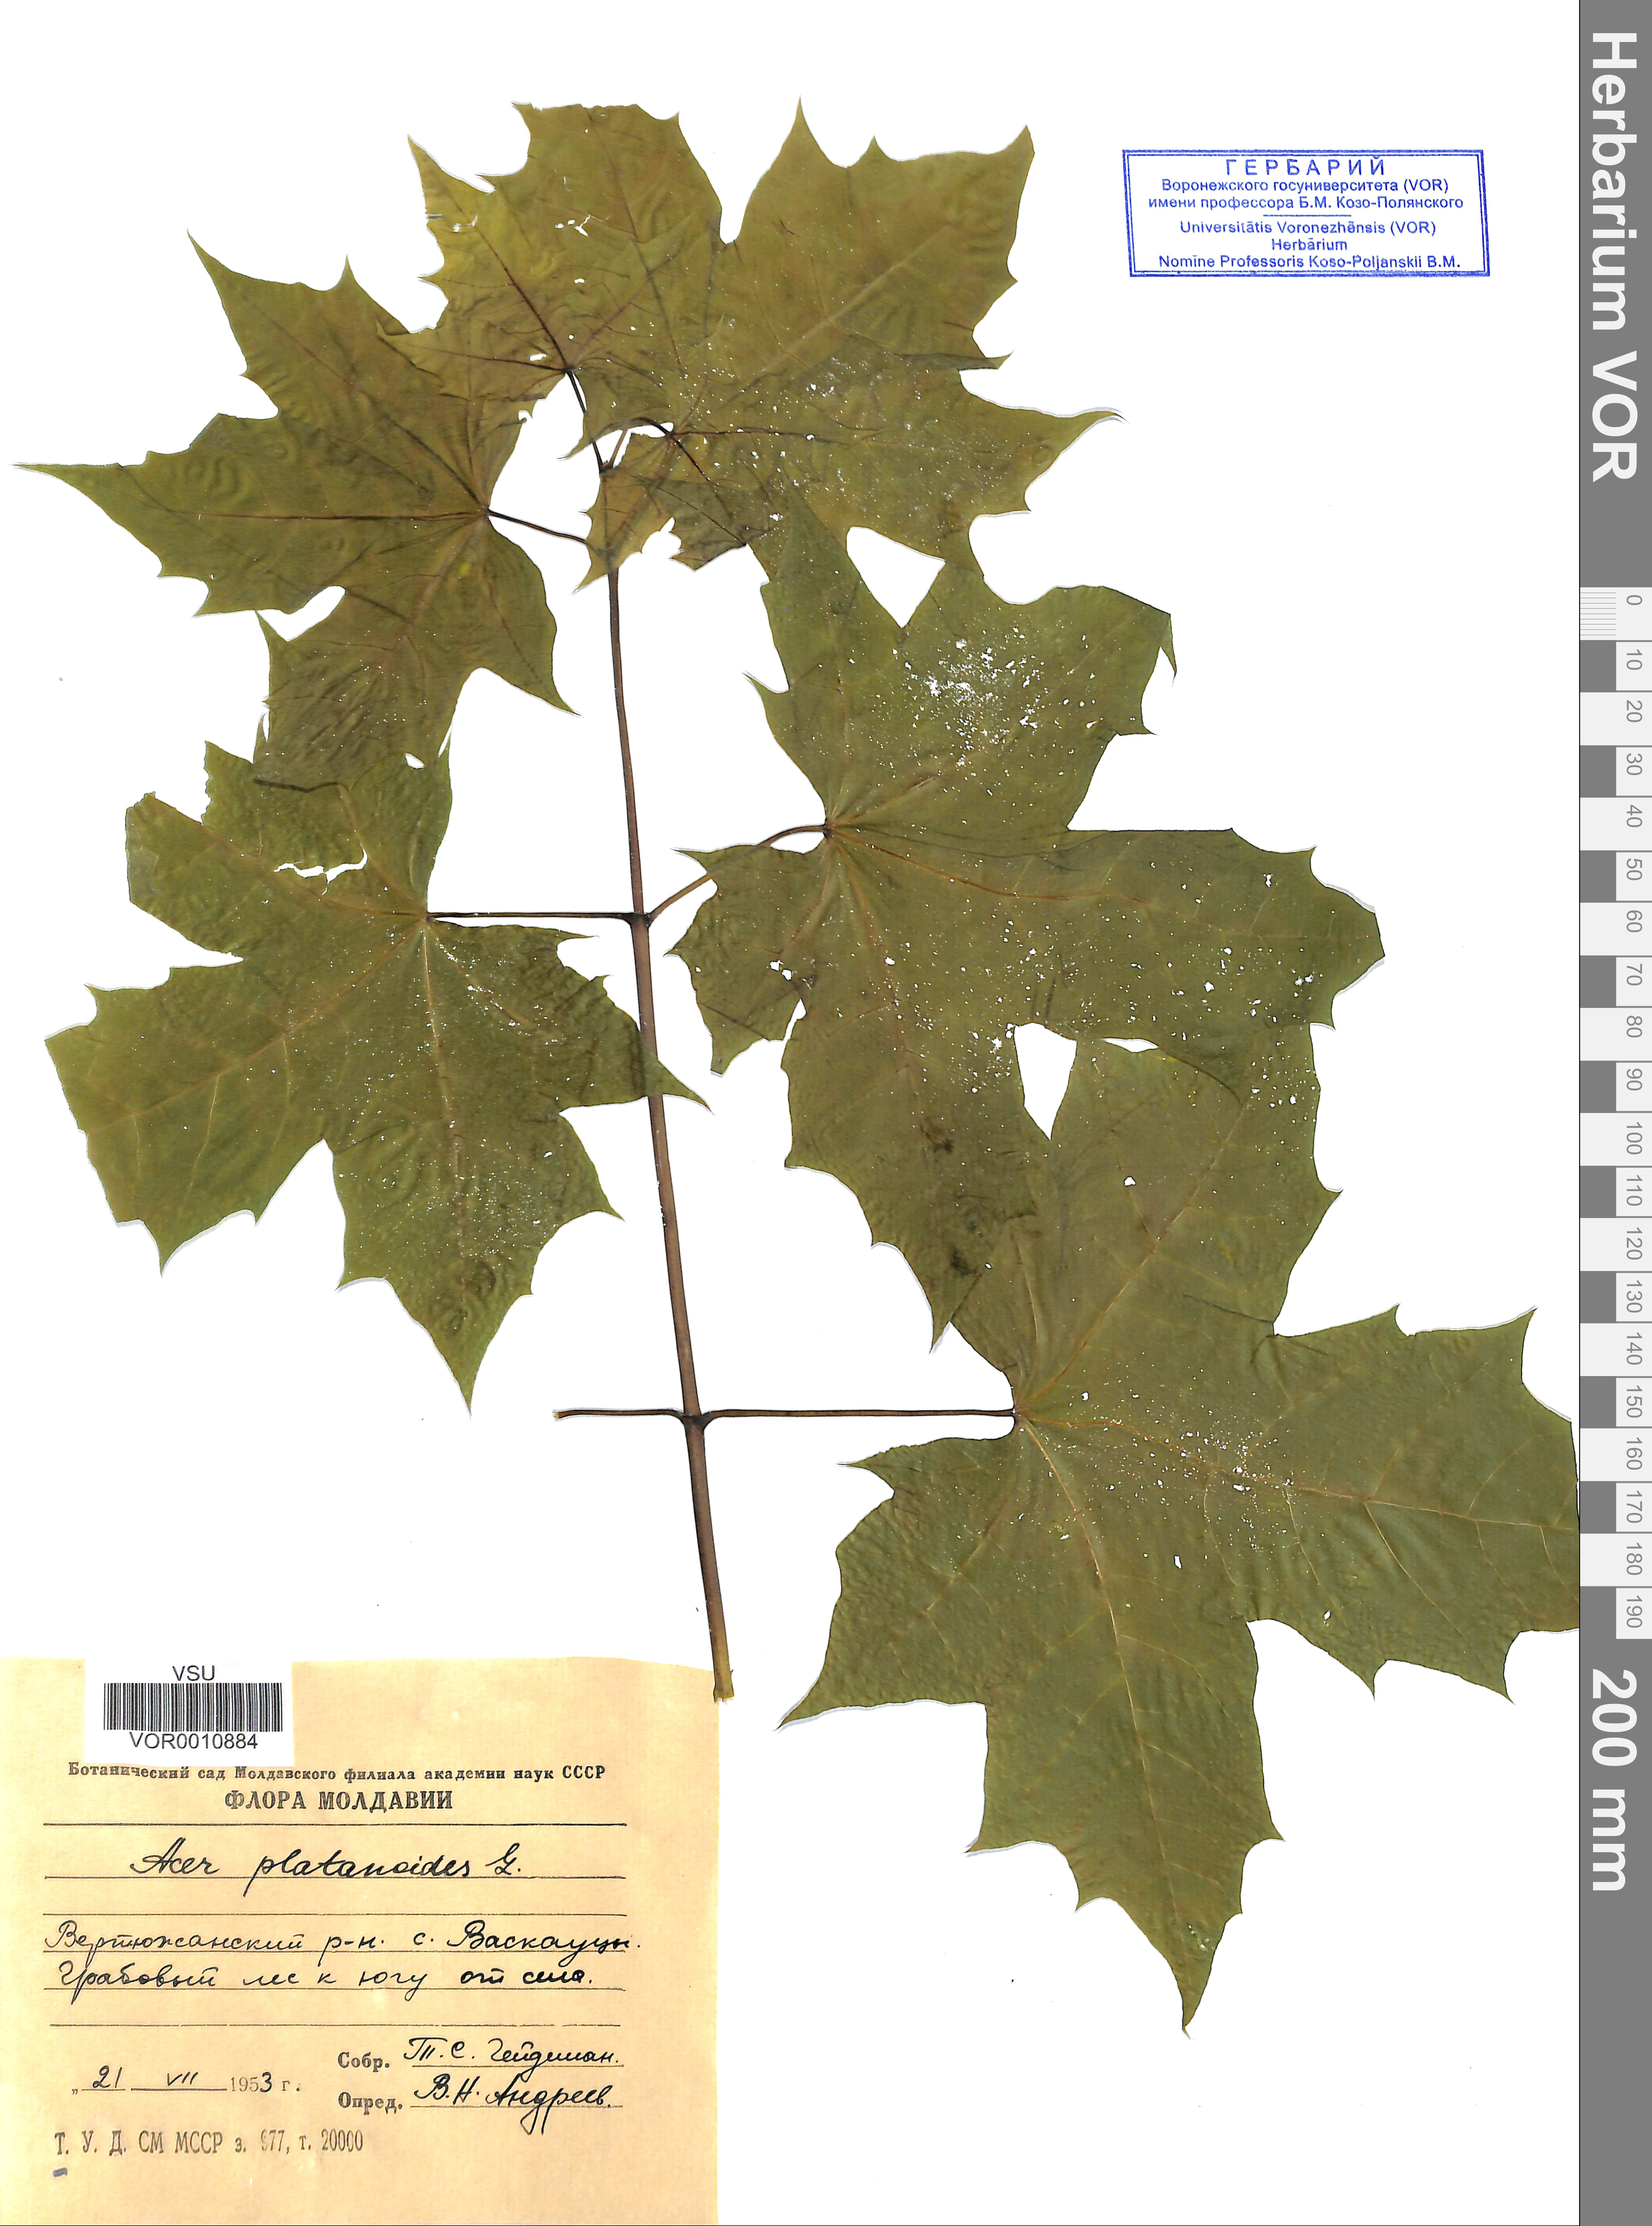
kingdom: Plantae
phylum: Tracheophyta
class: Magnoliopsida
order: Sapindales
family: Sapindaceae
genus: Acer
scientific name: Acer platanoides
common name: Norway maple
